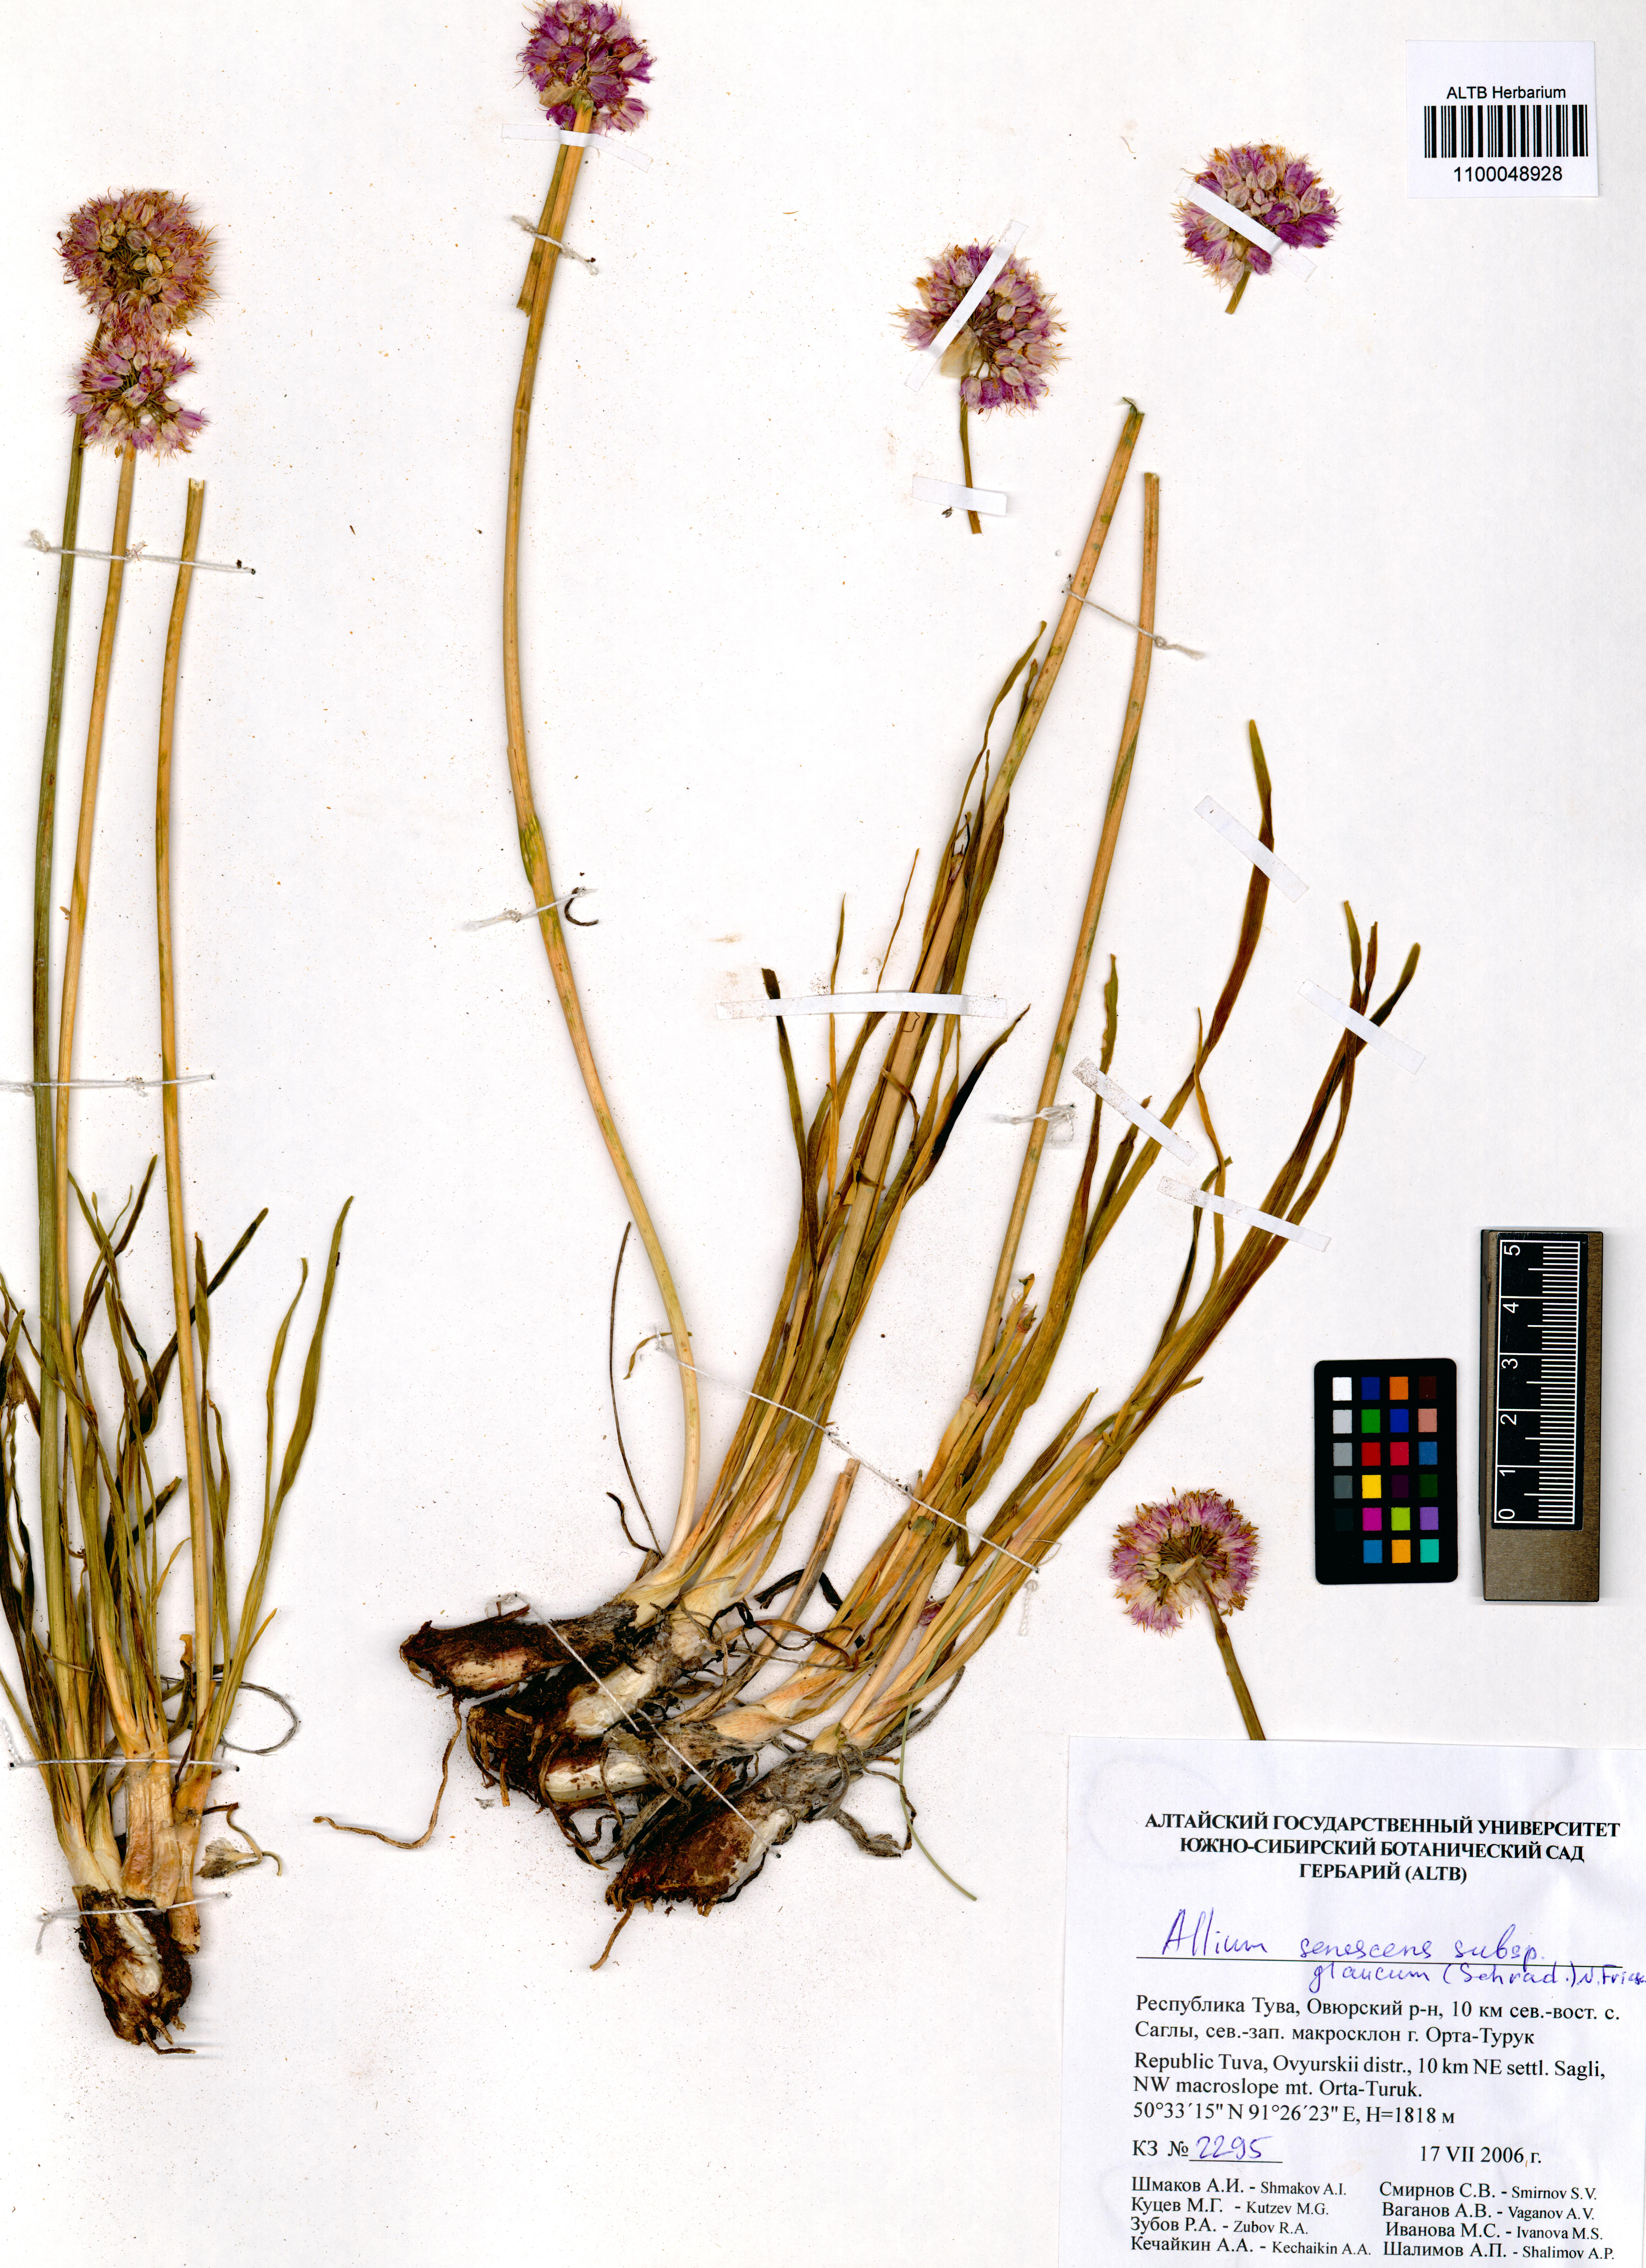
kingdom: Plantae
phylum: Tracheophyta
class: Liliopsida
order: Asparagales
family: Amaryllidaceae
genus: Allium
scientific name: Allium senescens
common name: German garlic
